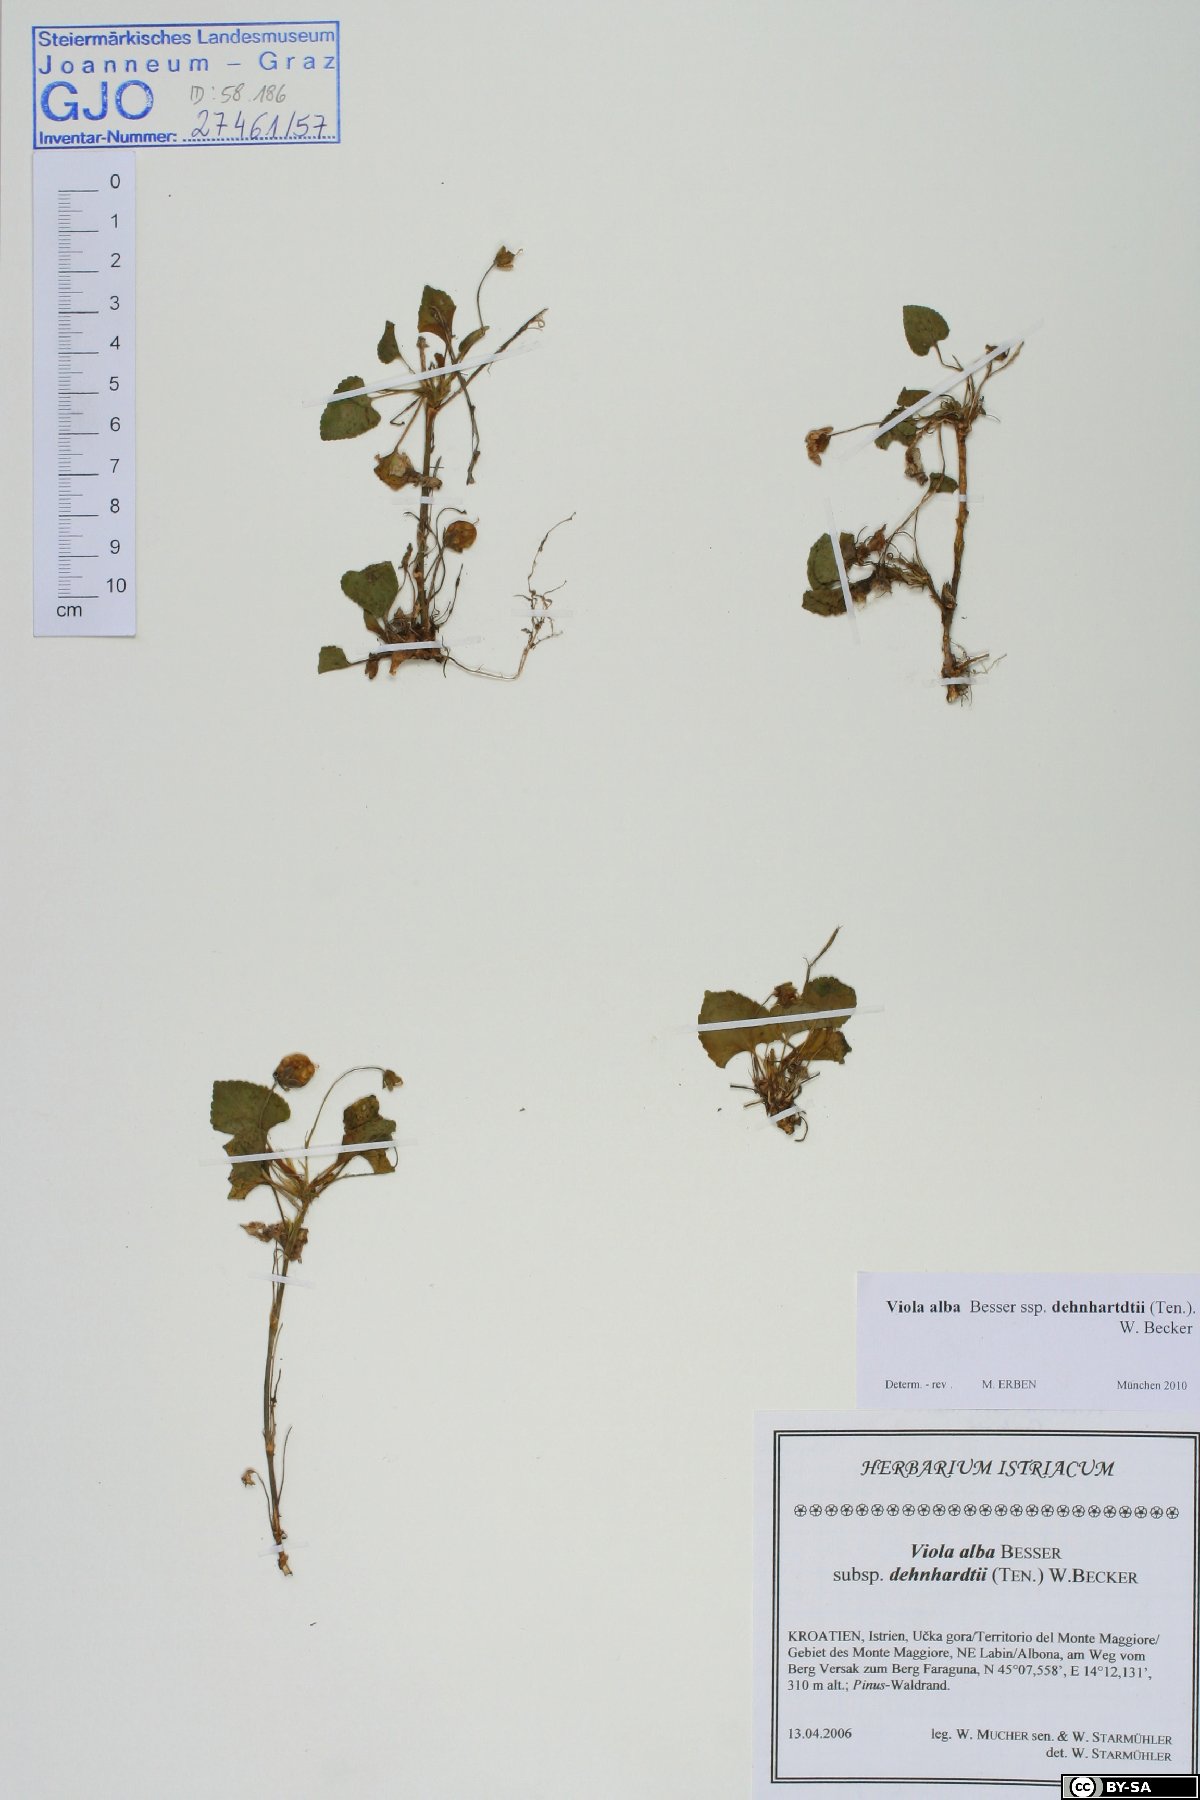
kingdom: Plantae
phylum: Tracheophyta
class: Magnoliopsida
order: Malpighiales
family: Violaceae
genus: Viola
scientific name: Viola alba
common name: White violet
